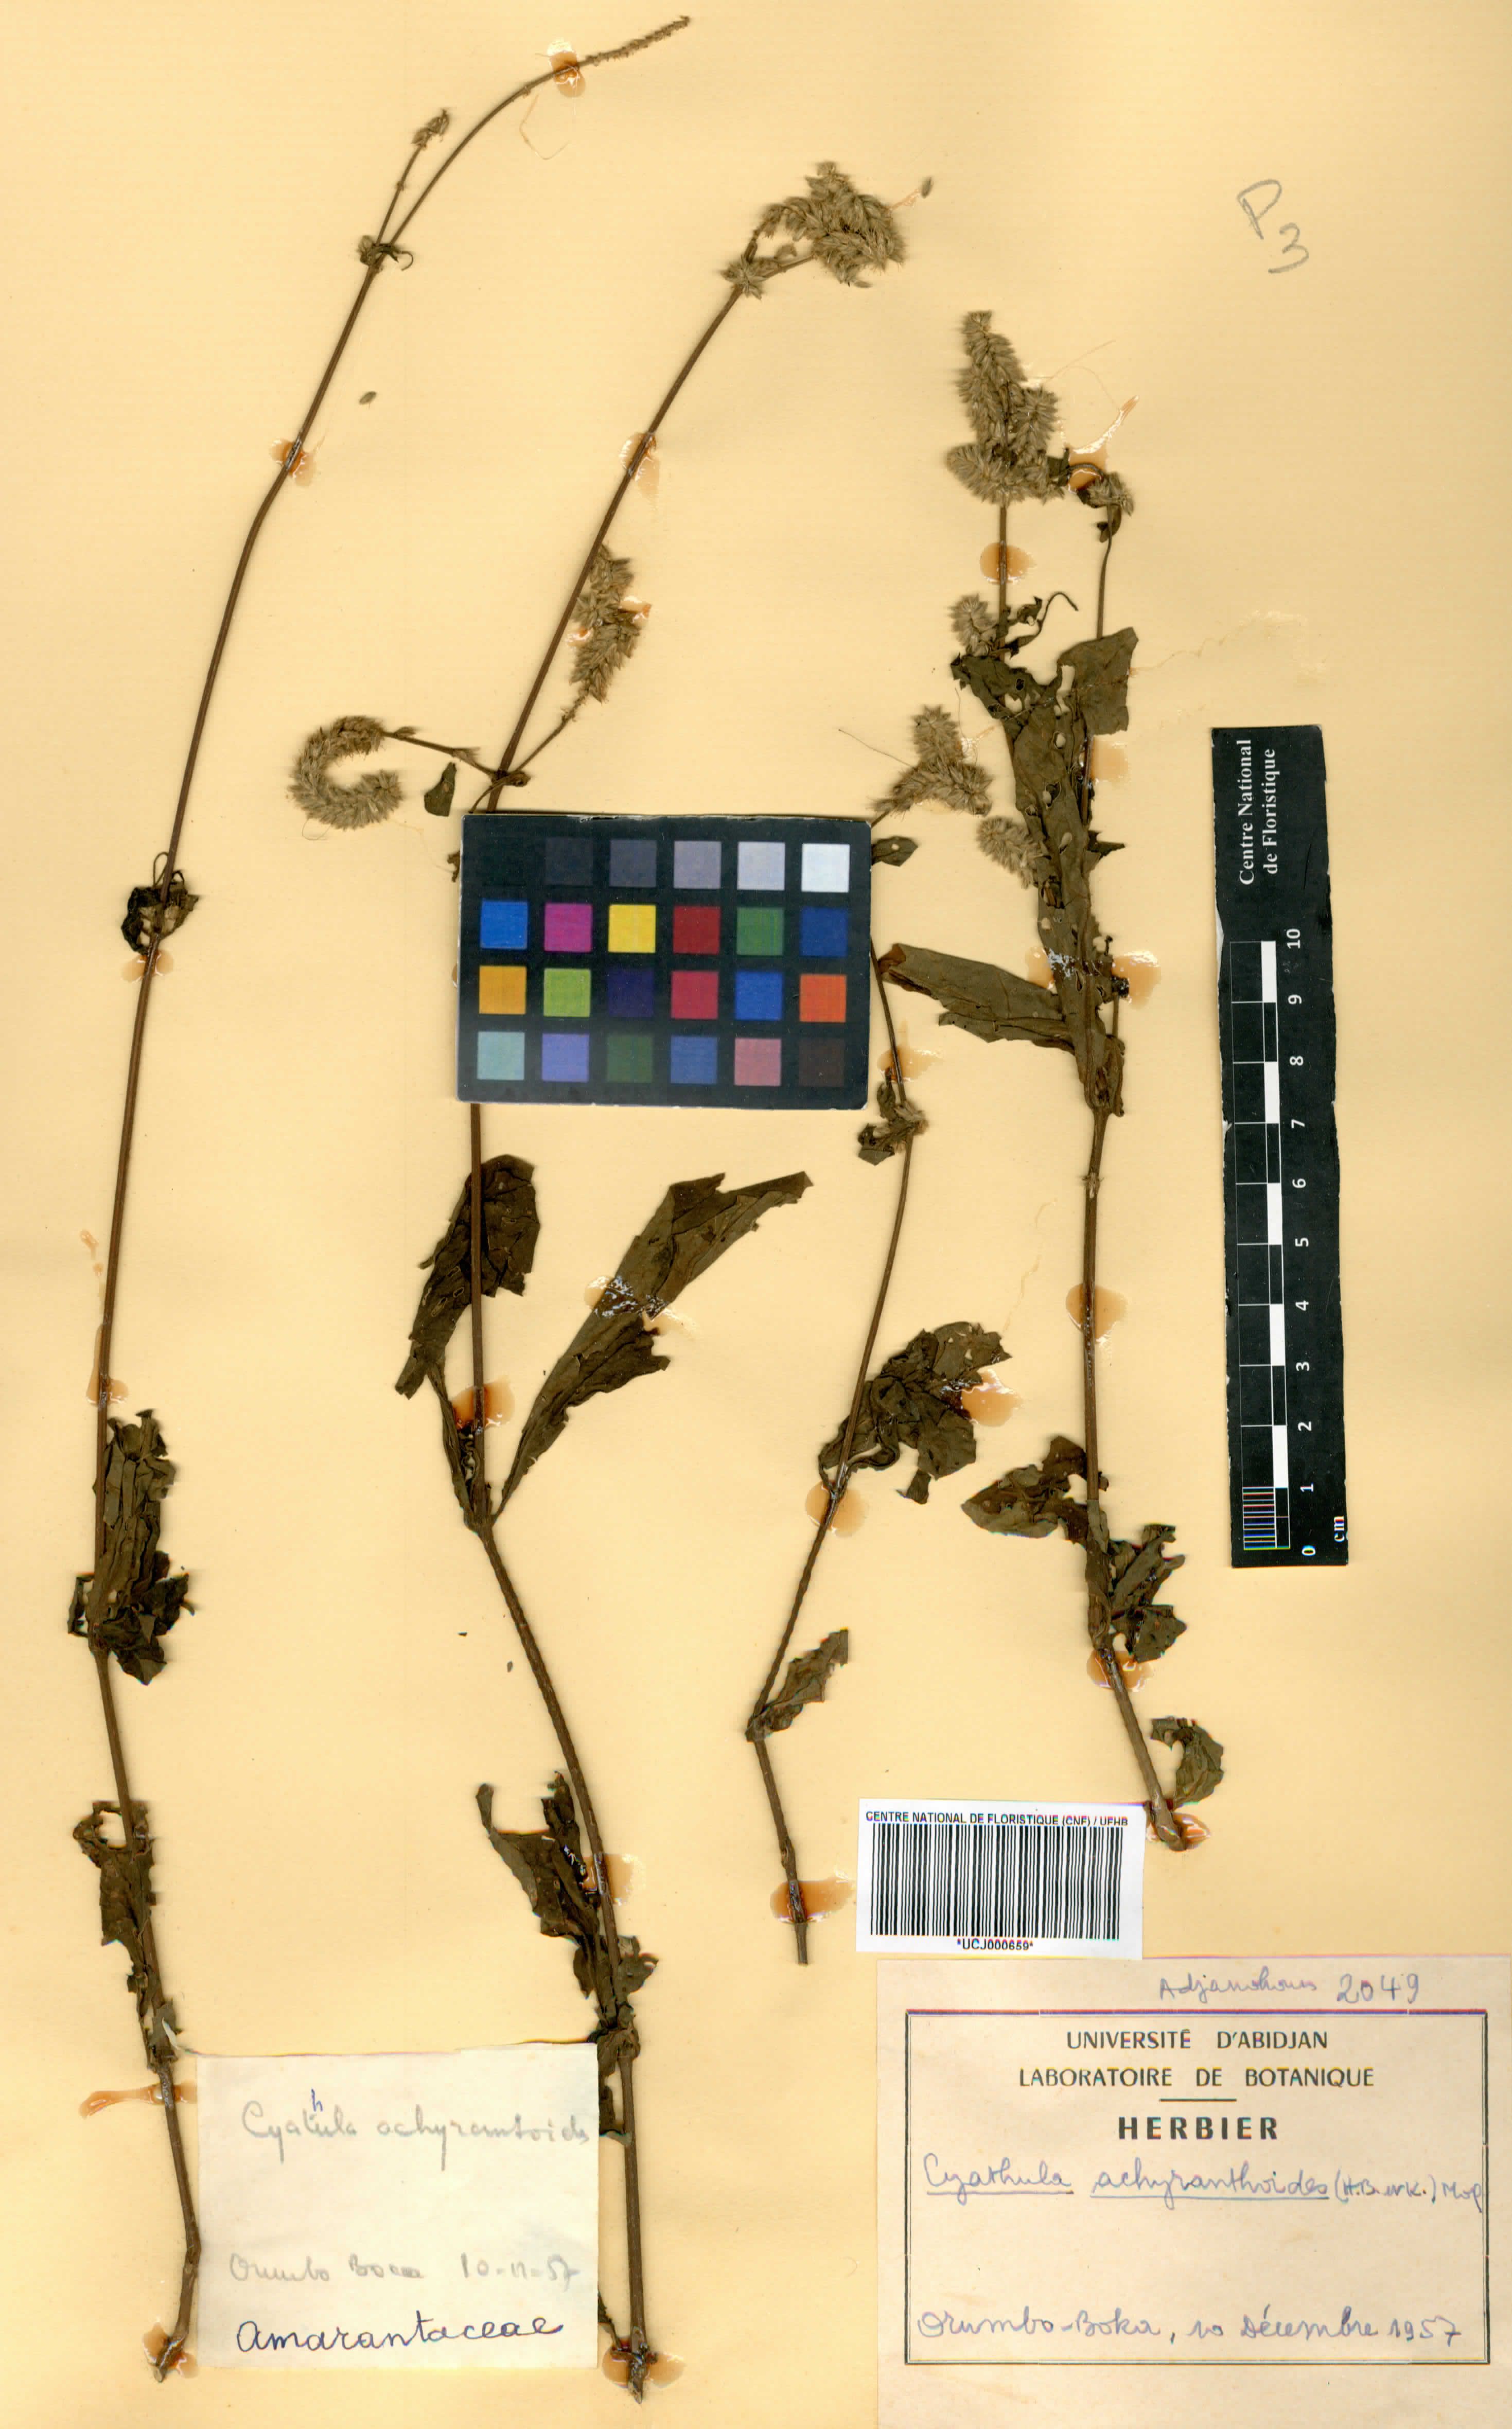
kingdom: Plantae
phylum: Tracheophyta
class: Magnoliopsida
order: Caryophyllales
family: Amaranthaceae
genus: Cyathula
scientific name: Cyathula achyranthoides
